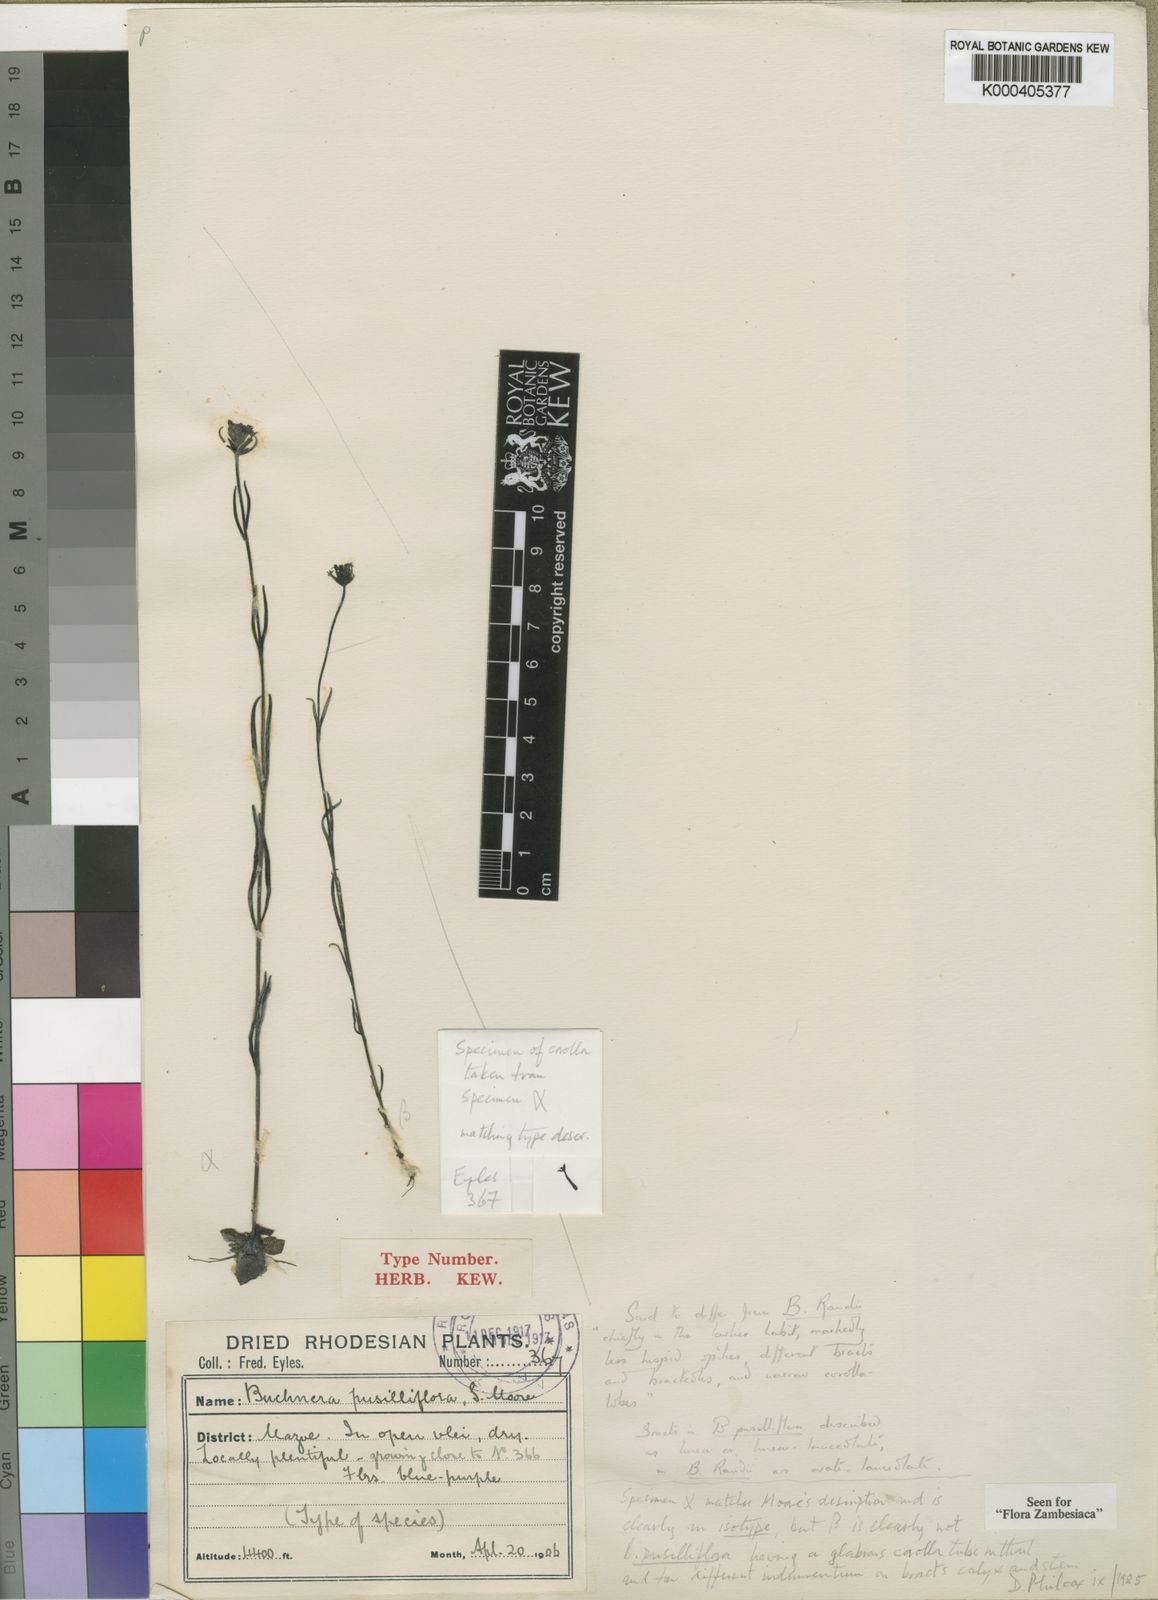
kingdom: Plantae
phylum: Tracheophyta
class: Magnoliopsida
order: Lamiales
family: Orobanchaceae
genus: Buchnera
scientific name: Buchnera pusilliflora
